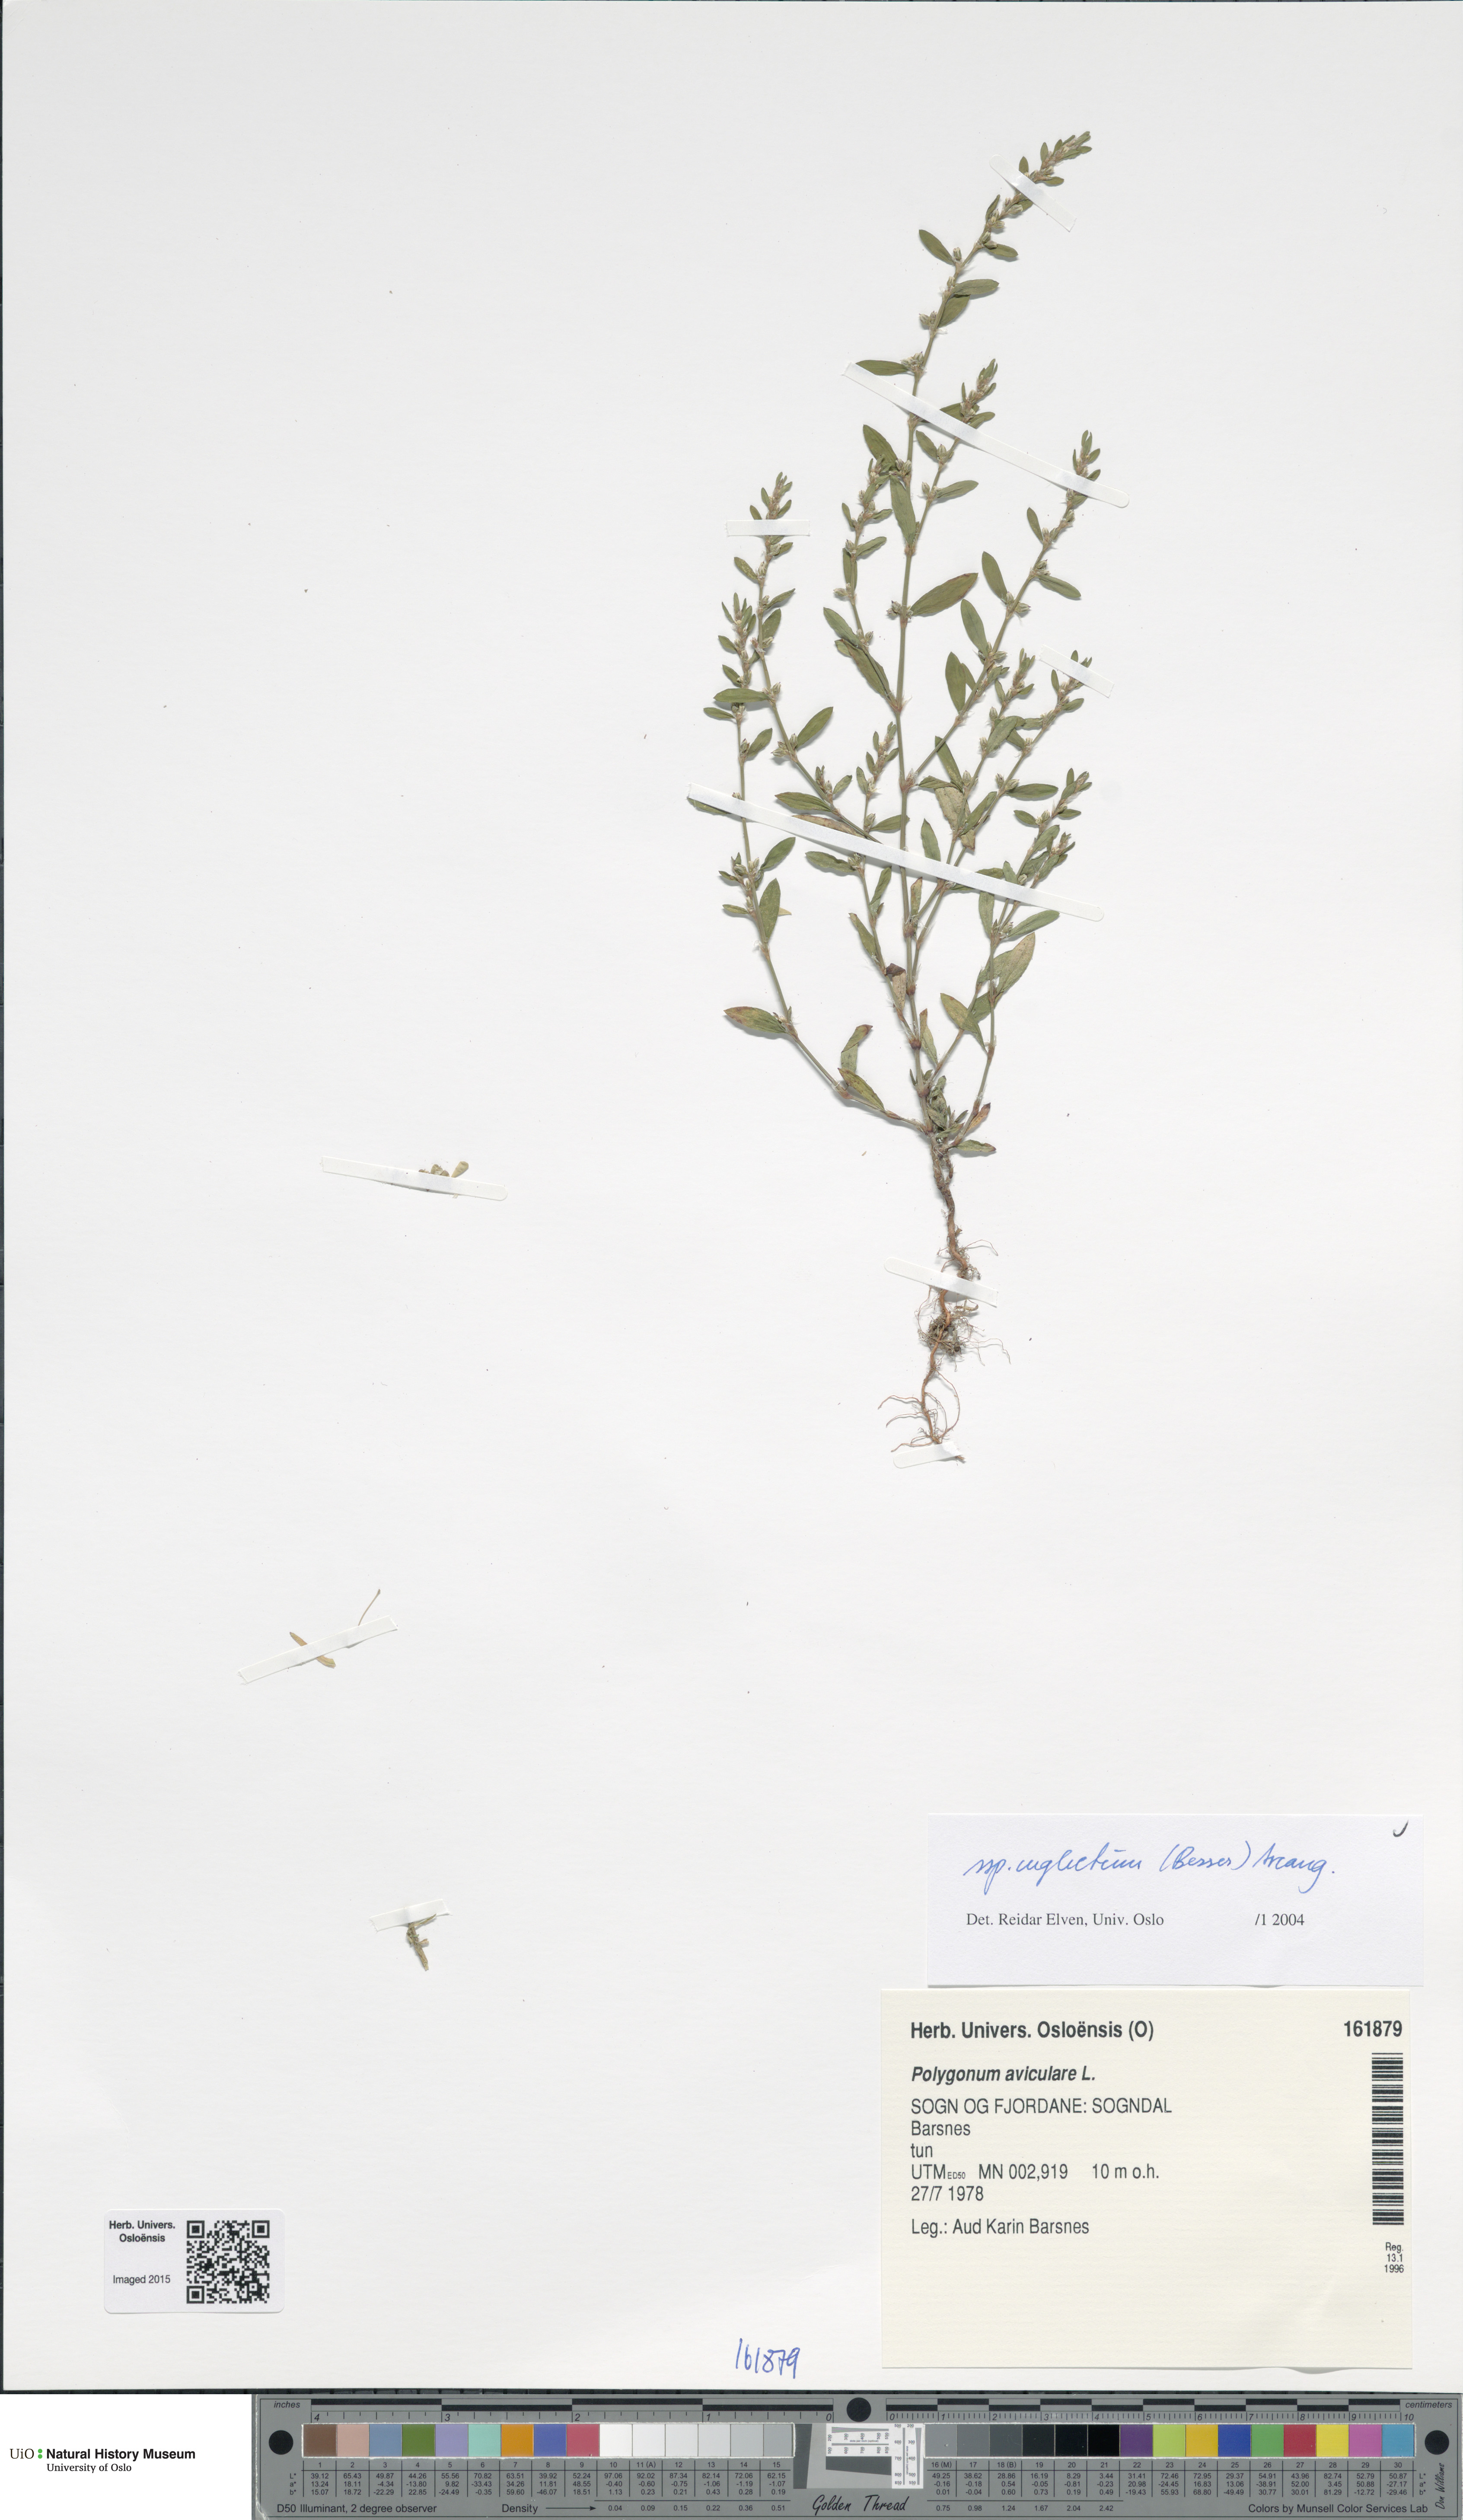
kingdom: Plantae
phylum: Tracheophyta
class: Magnoliopsida
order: Caryophyllales
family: Polygonaceae
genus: Polygonum
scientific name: Polygonum aviculare
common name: Prostrate knotweed
